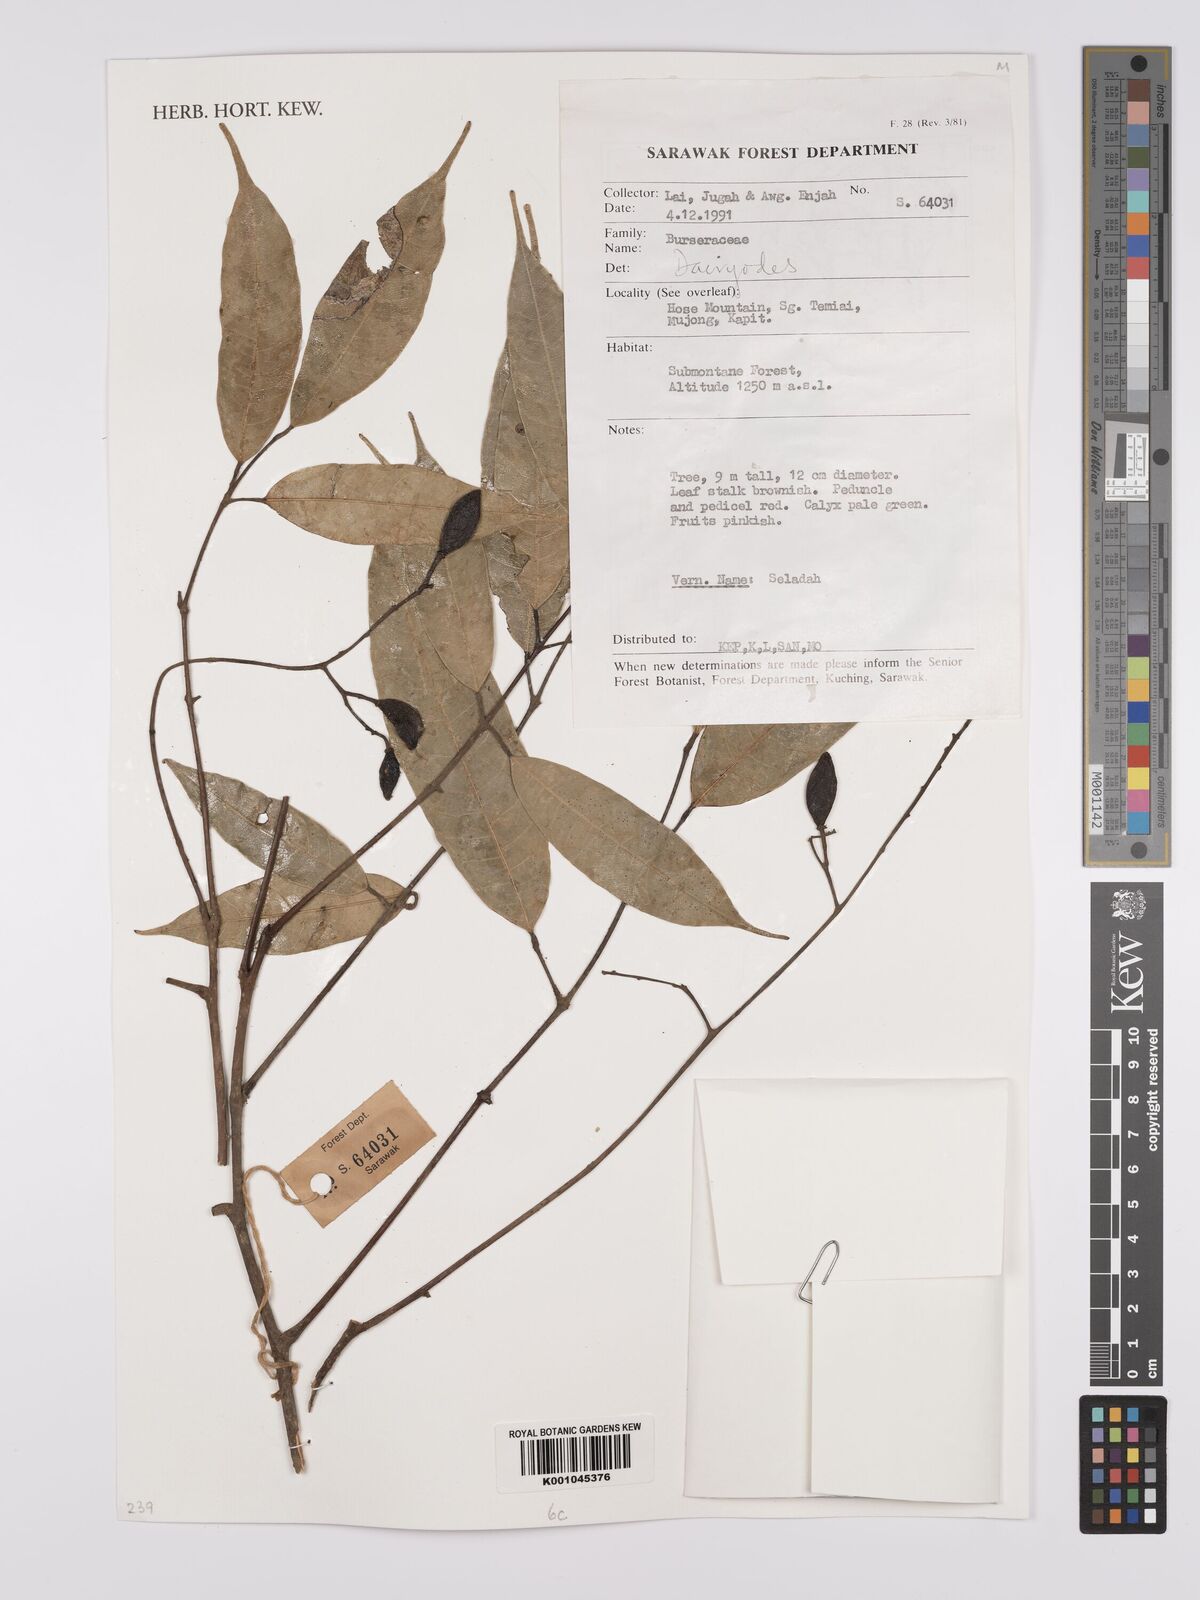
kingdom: Plantae
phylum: Tracheophyta
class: Magnoliopsida
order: Sapindales
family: Burseraceae
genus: Dacryodes
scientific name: Dacryodes
